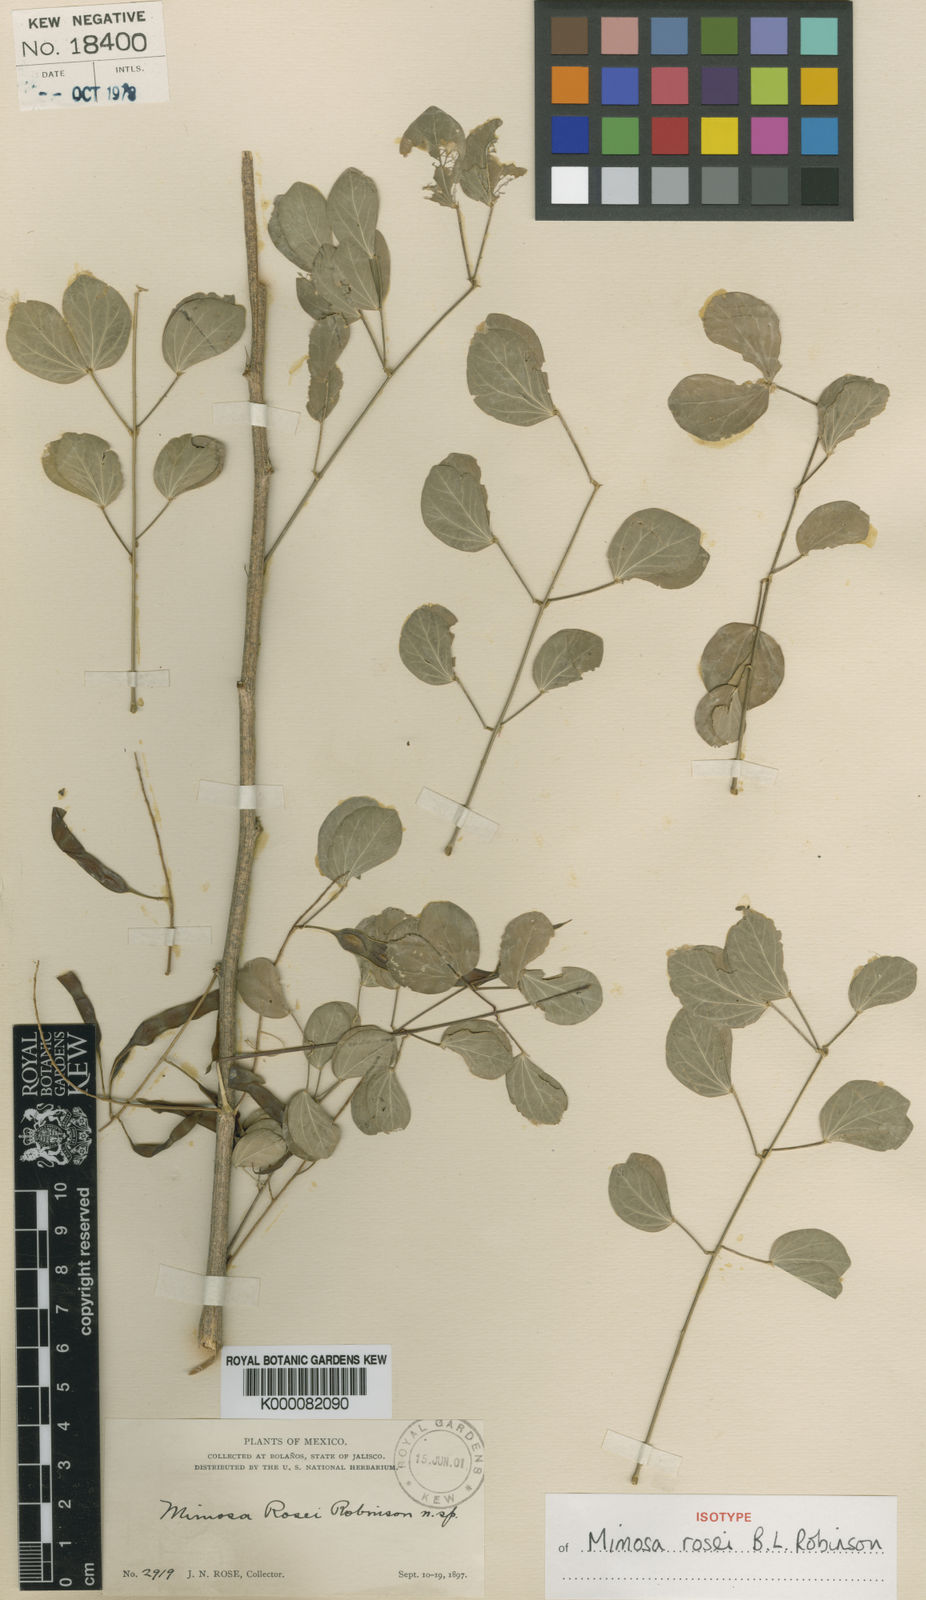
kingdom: Plantae
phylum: Tracheophyta
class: Magnoliopsida
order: Fabales
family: Fabaceae
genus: Mimosa
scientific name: Mimosa rosei
